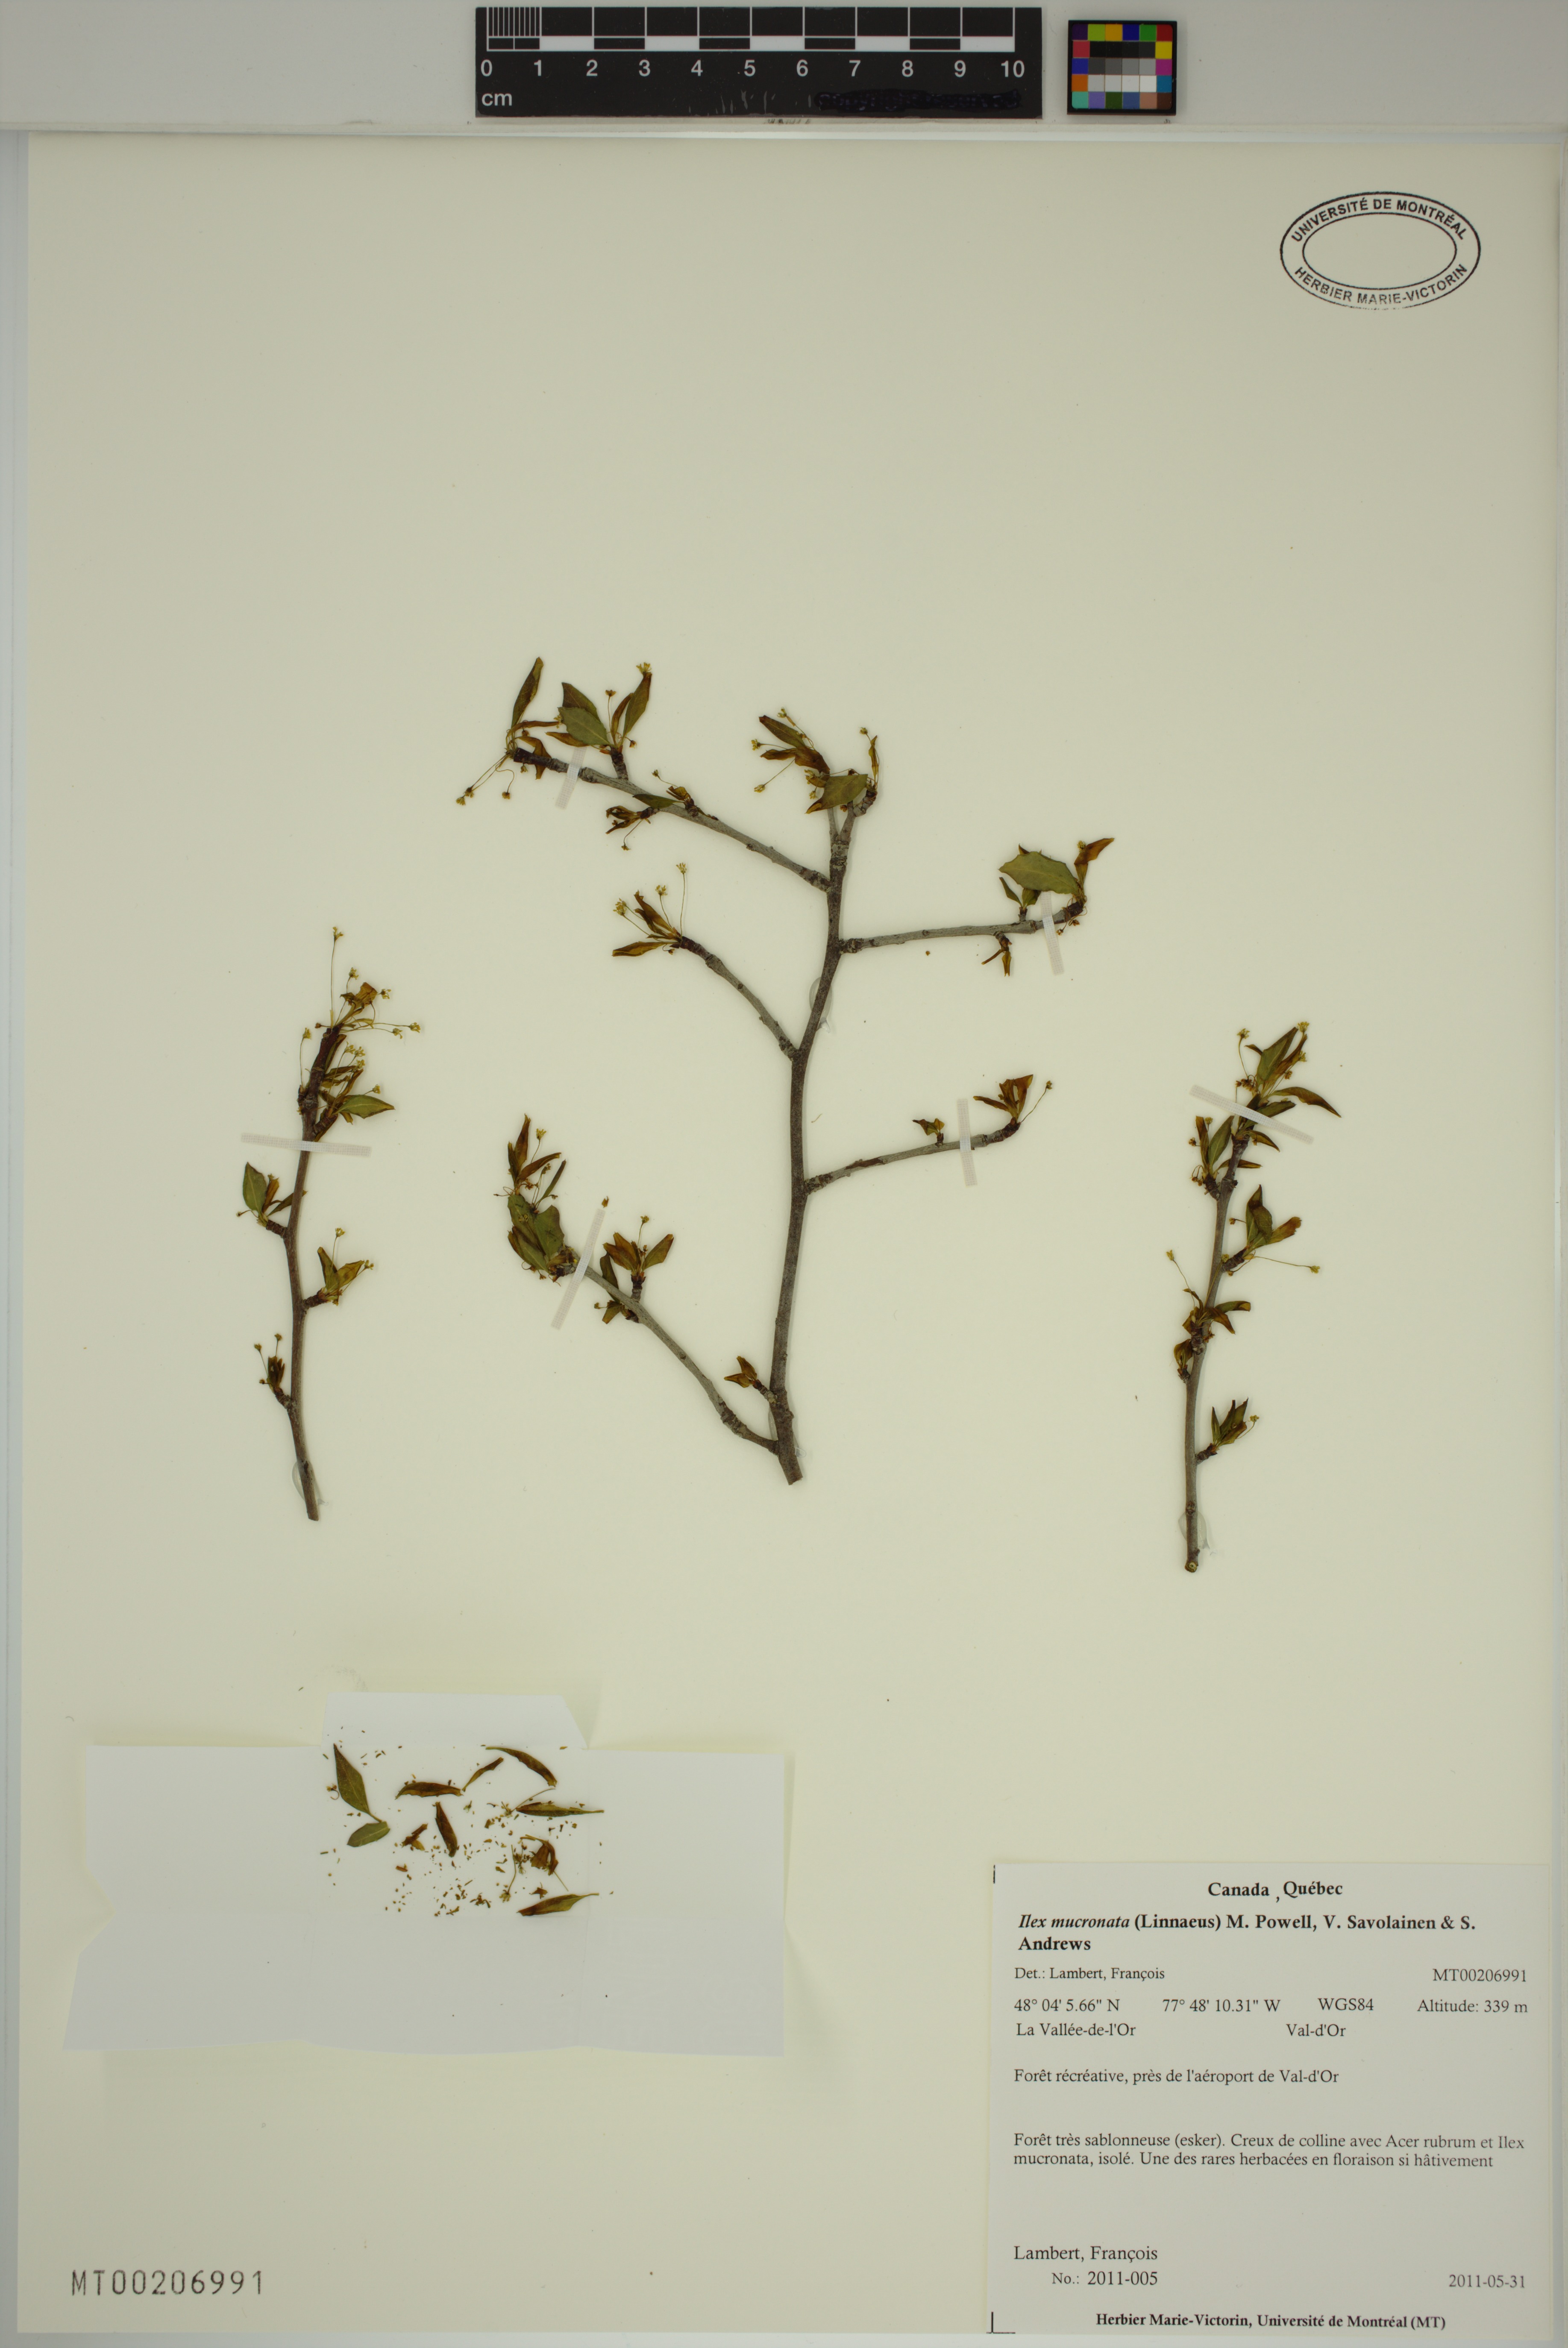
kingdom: Plantae
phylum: Tracheophyta
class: Magnoliopsida
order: Aquifoliales
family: Aquifoliaceae
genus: Ilex
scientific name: Ilex mucronata
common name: Catberry
